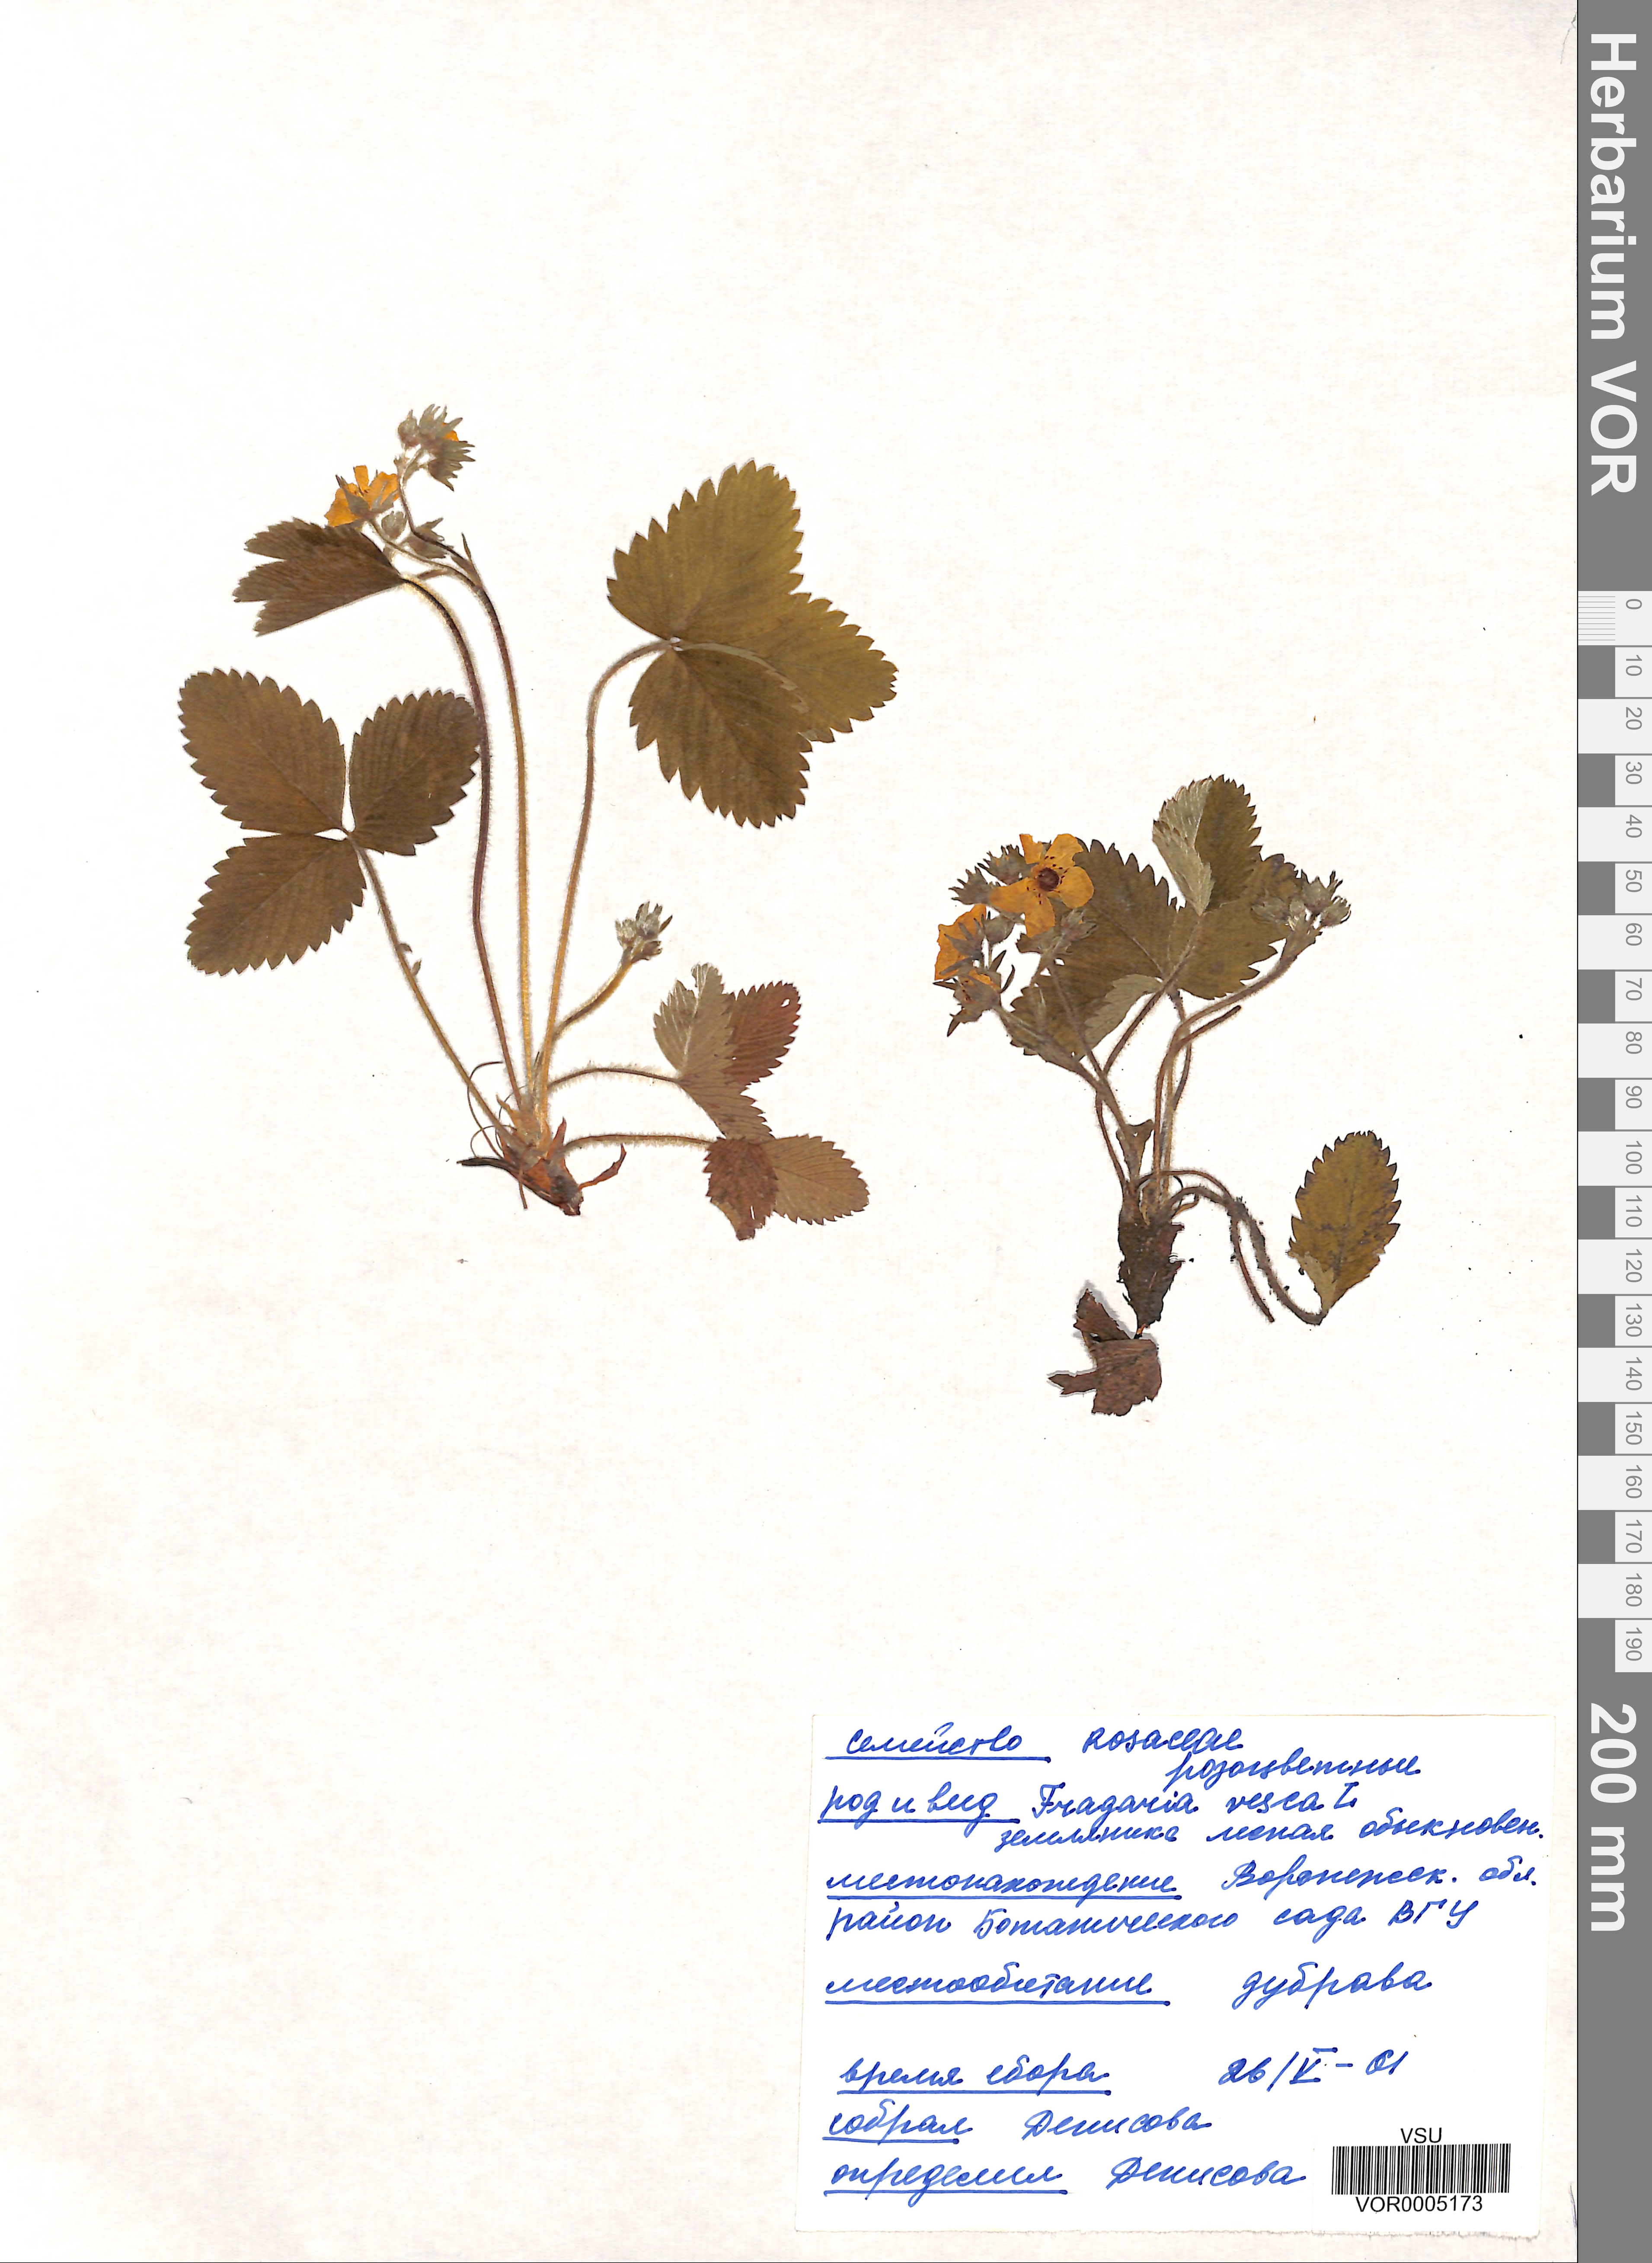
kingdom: Plantae
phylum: Tracheophyta
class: Magnoliopsida
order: Rosales
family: Rosaceae
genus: Fragaria
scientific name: Fragaria vesca
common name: Wild strawberry
